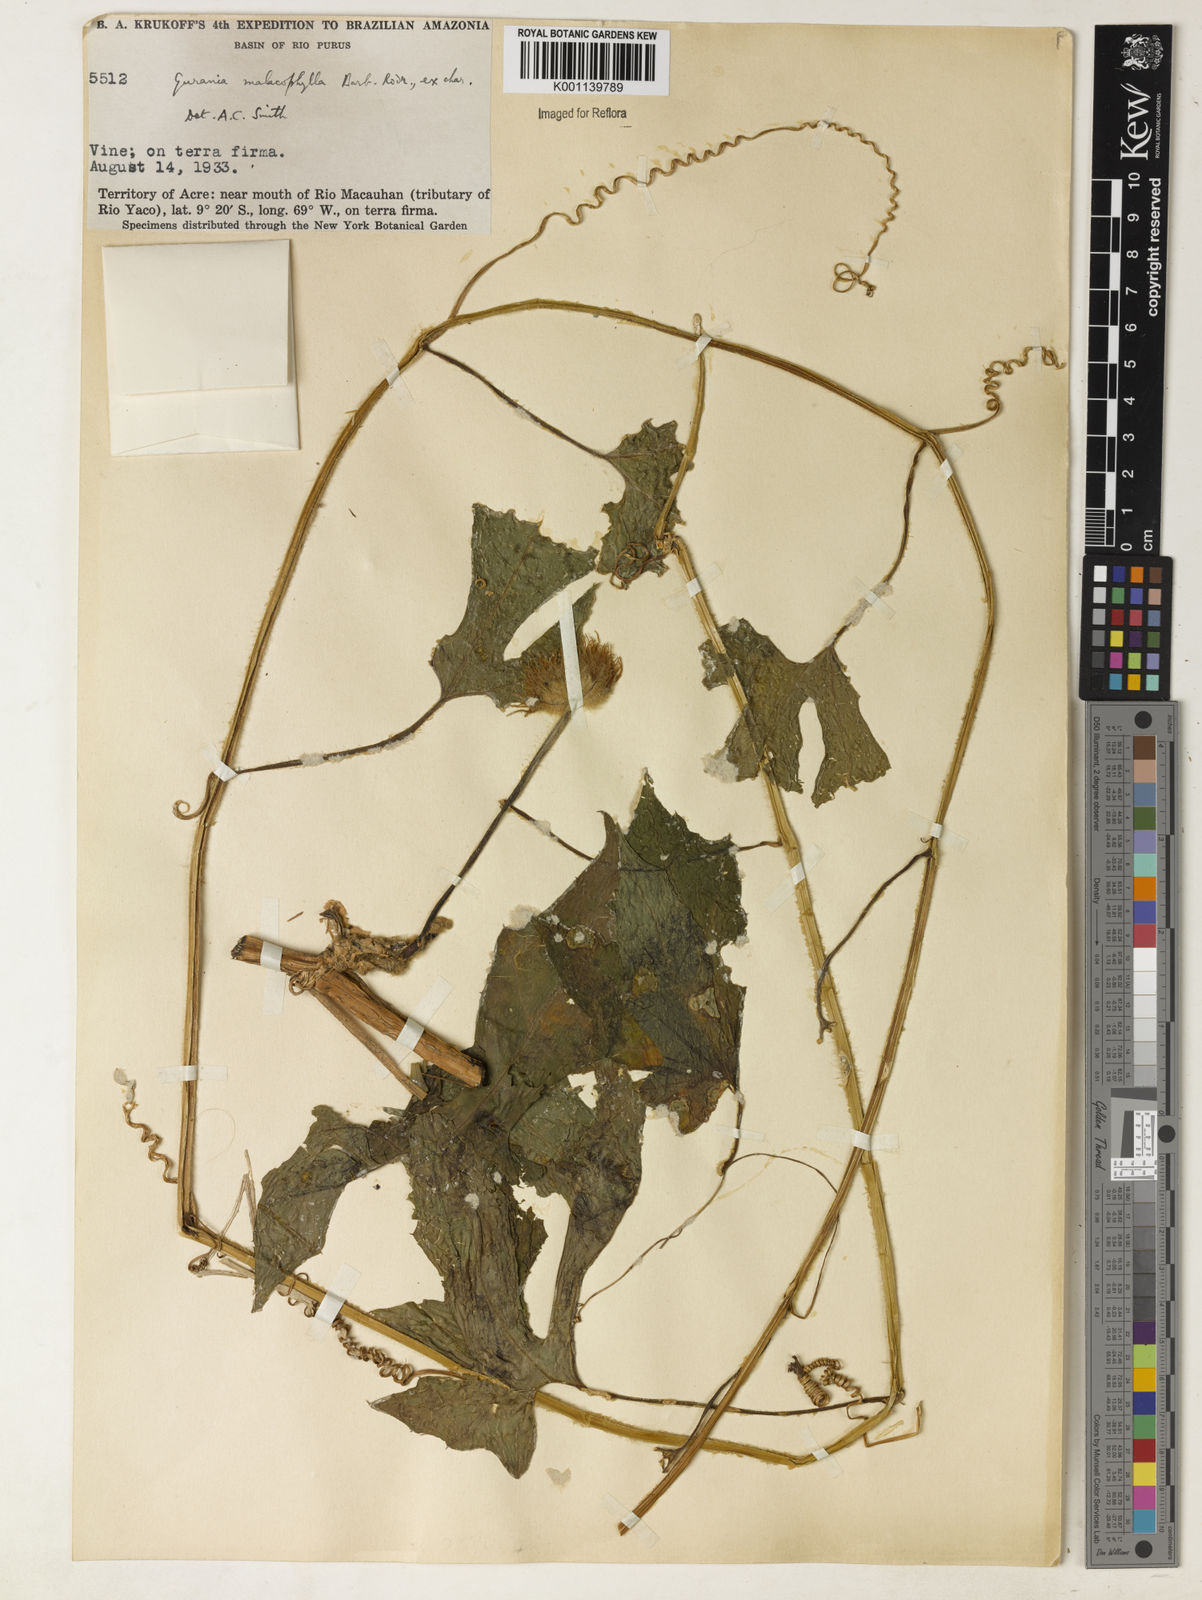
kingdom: Plantae
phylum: Tracheophyta
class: Magnoliopsida
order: Cucurbitales
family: Cucurbitaceae
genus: Gurania
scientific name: Gurania sinuata
